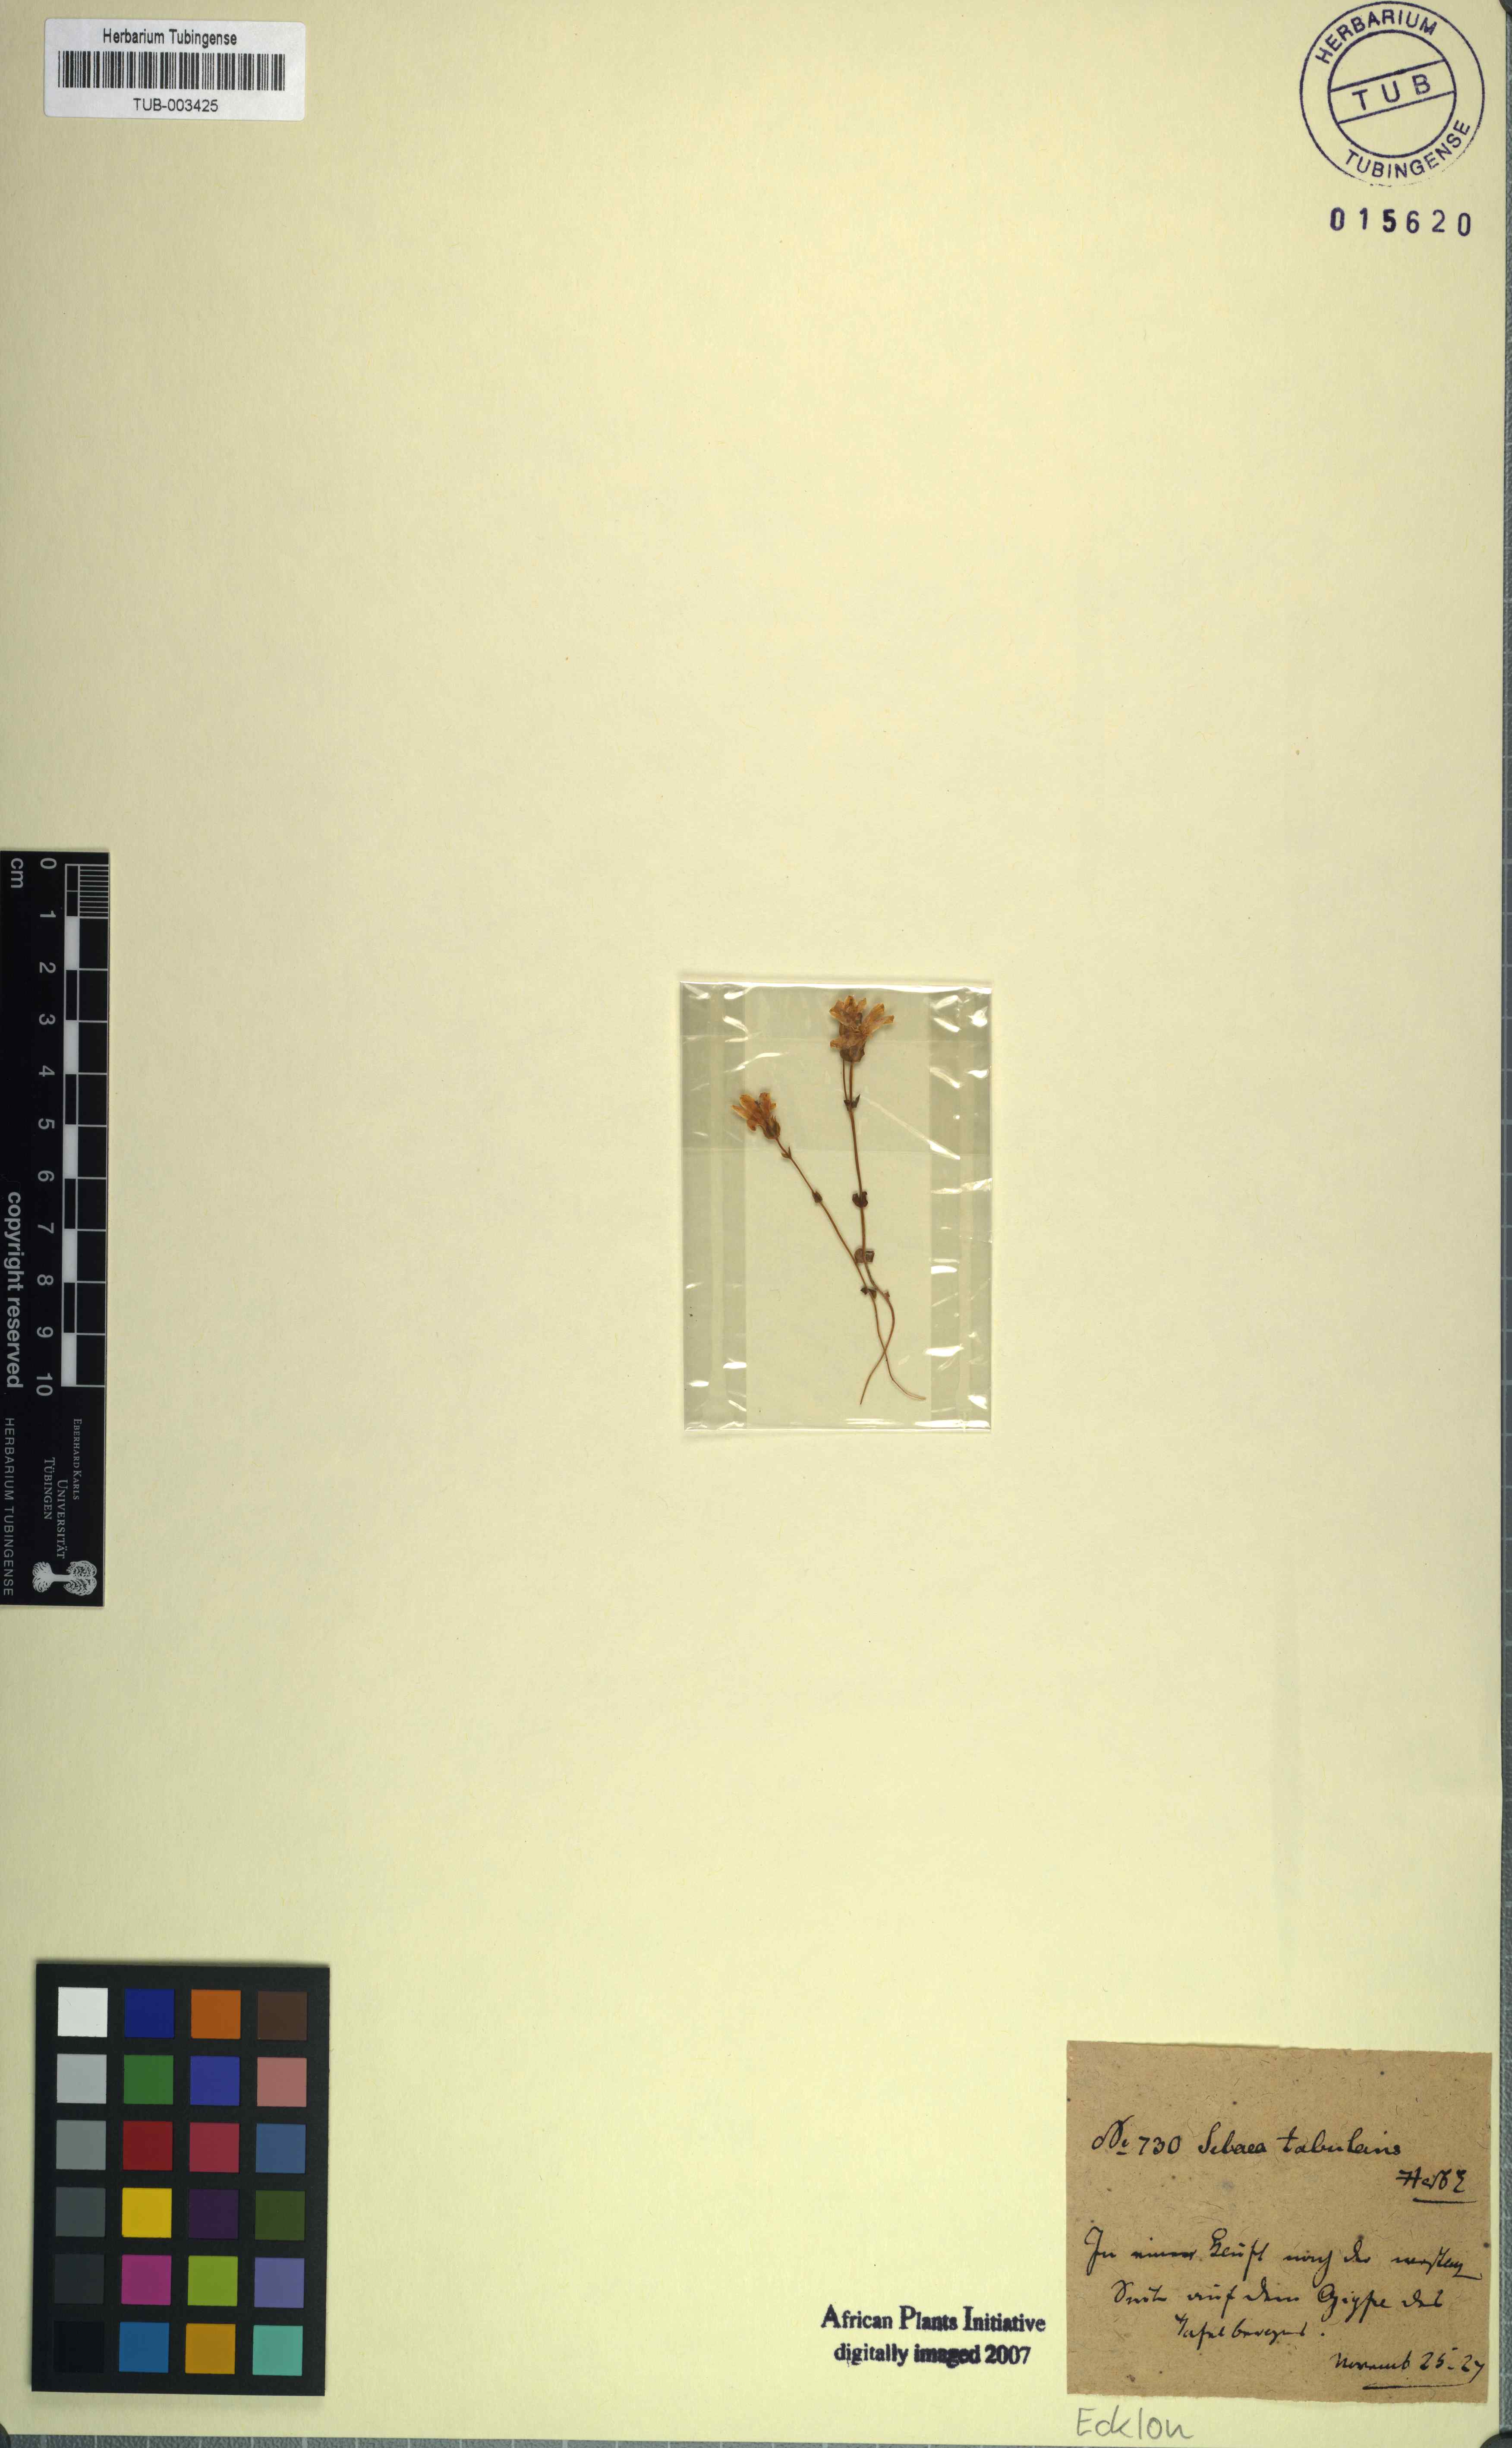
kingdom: Plantae
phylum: Tracheophyta
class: Magnoliopsida
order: Gentianales
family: Gentianaceae
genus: Sebaea
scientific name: Sebaea sulphurea
